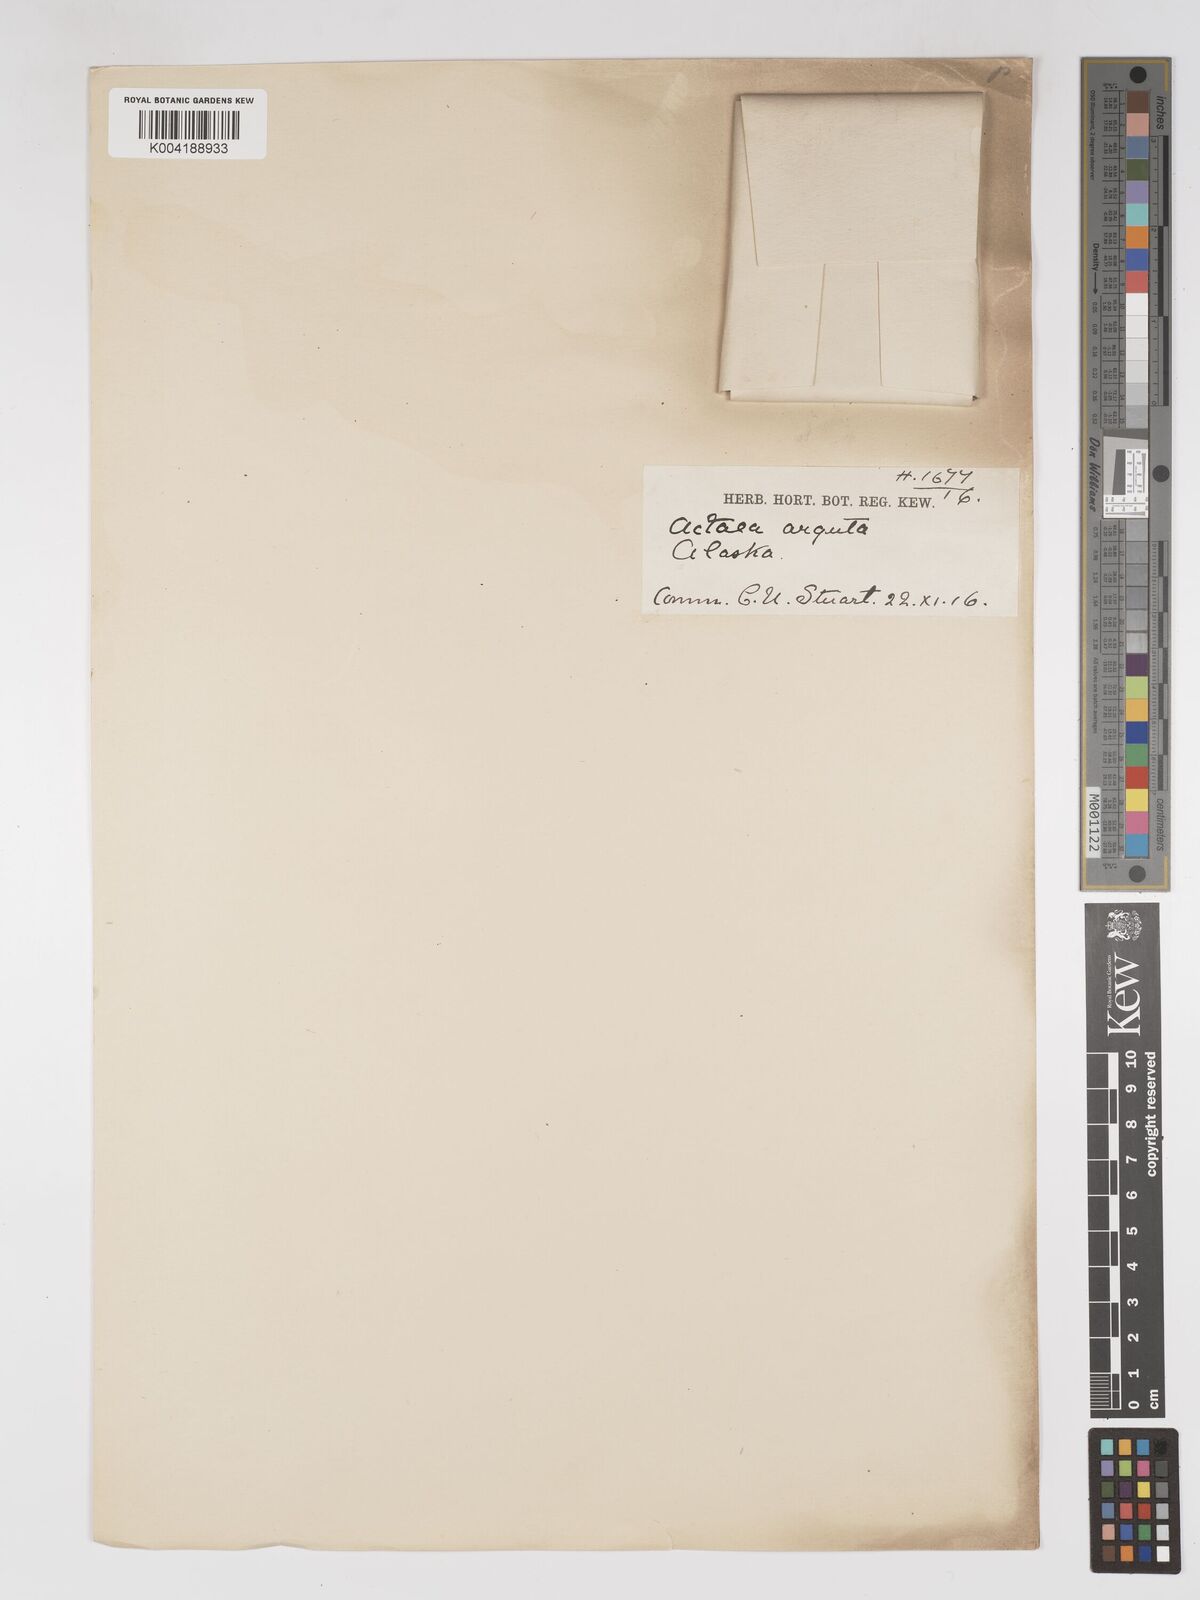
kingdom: Plantae
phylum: Tracheophyta
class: Magnoliopsida
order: Ranunculales
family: Ranunculaceae
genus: Actaea
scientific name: Actaea rubra
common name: Red baneberry
